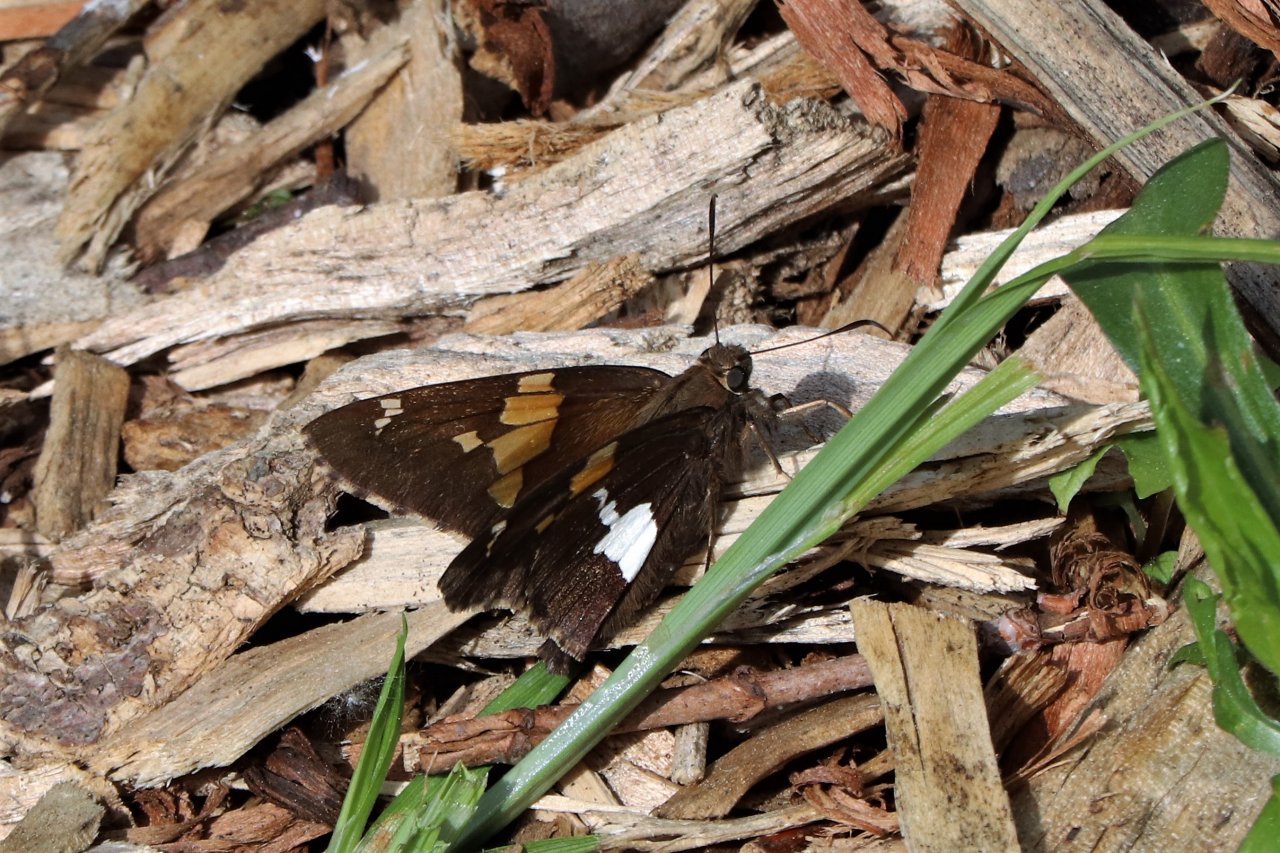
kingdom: Animalia
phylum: Arthropoda
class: Insecta
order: Lepidoptera
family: Hesperiidae
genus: Epargyreus
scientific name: Epargyreus clarus
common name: Silver-spotted Skipper
